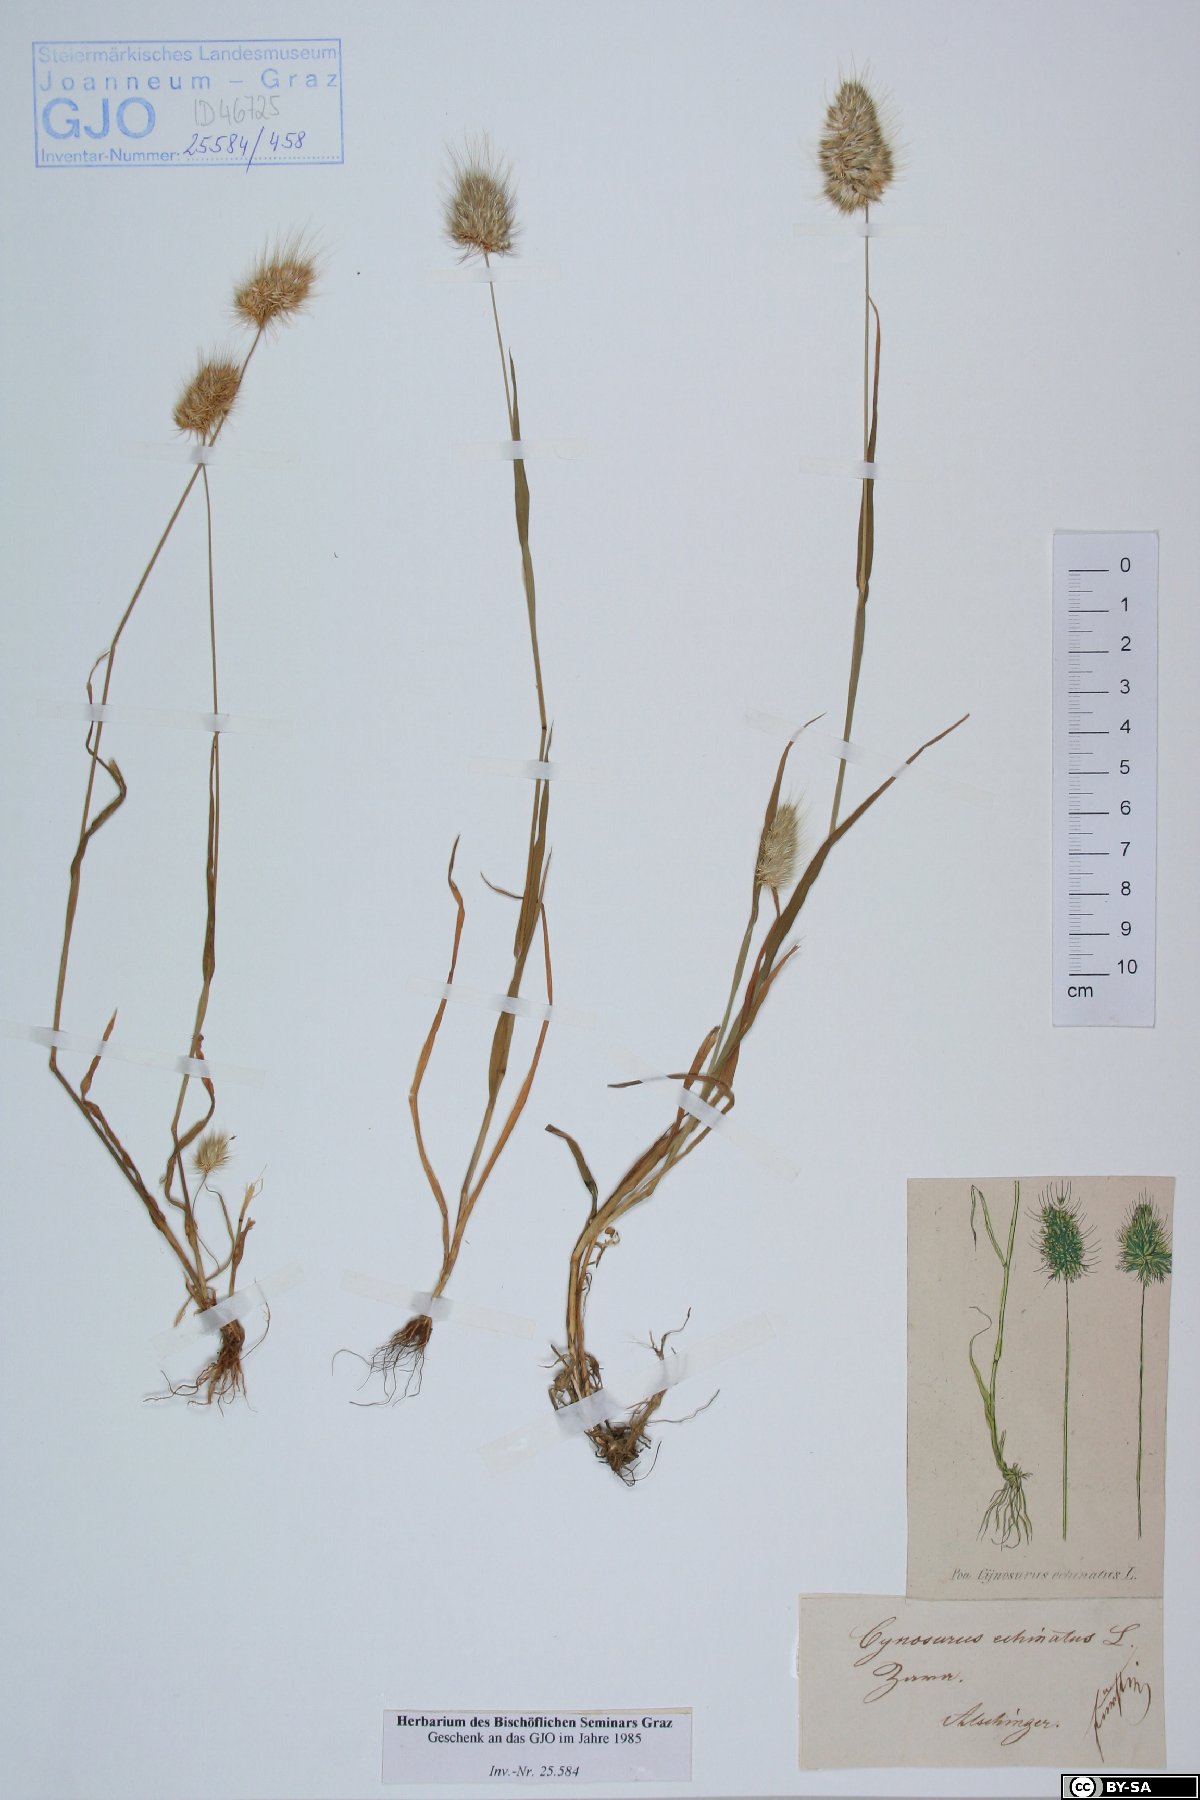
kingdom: Plantae
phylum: Tracheophyta
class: Liliopsida
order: Poales
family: Poaceae
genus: Cynosurus
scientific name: Cynosurus echinatus
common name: Rough dog's-tail
